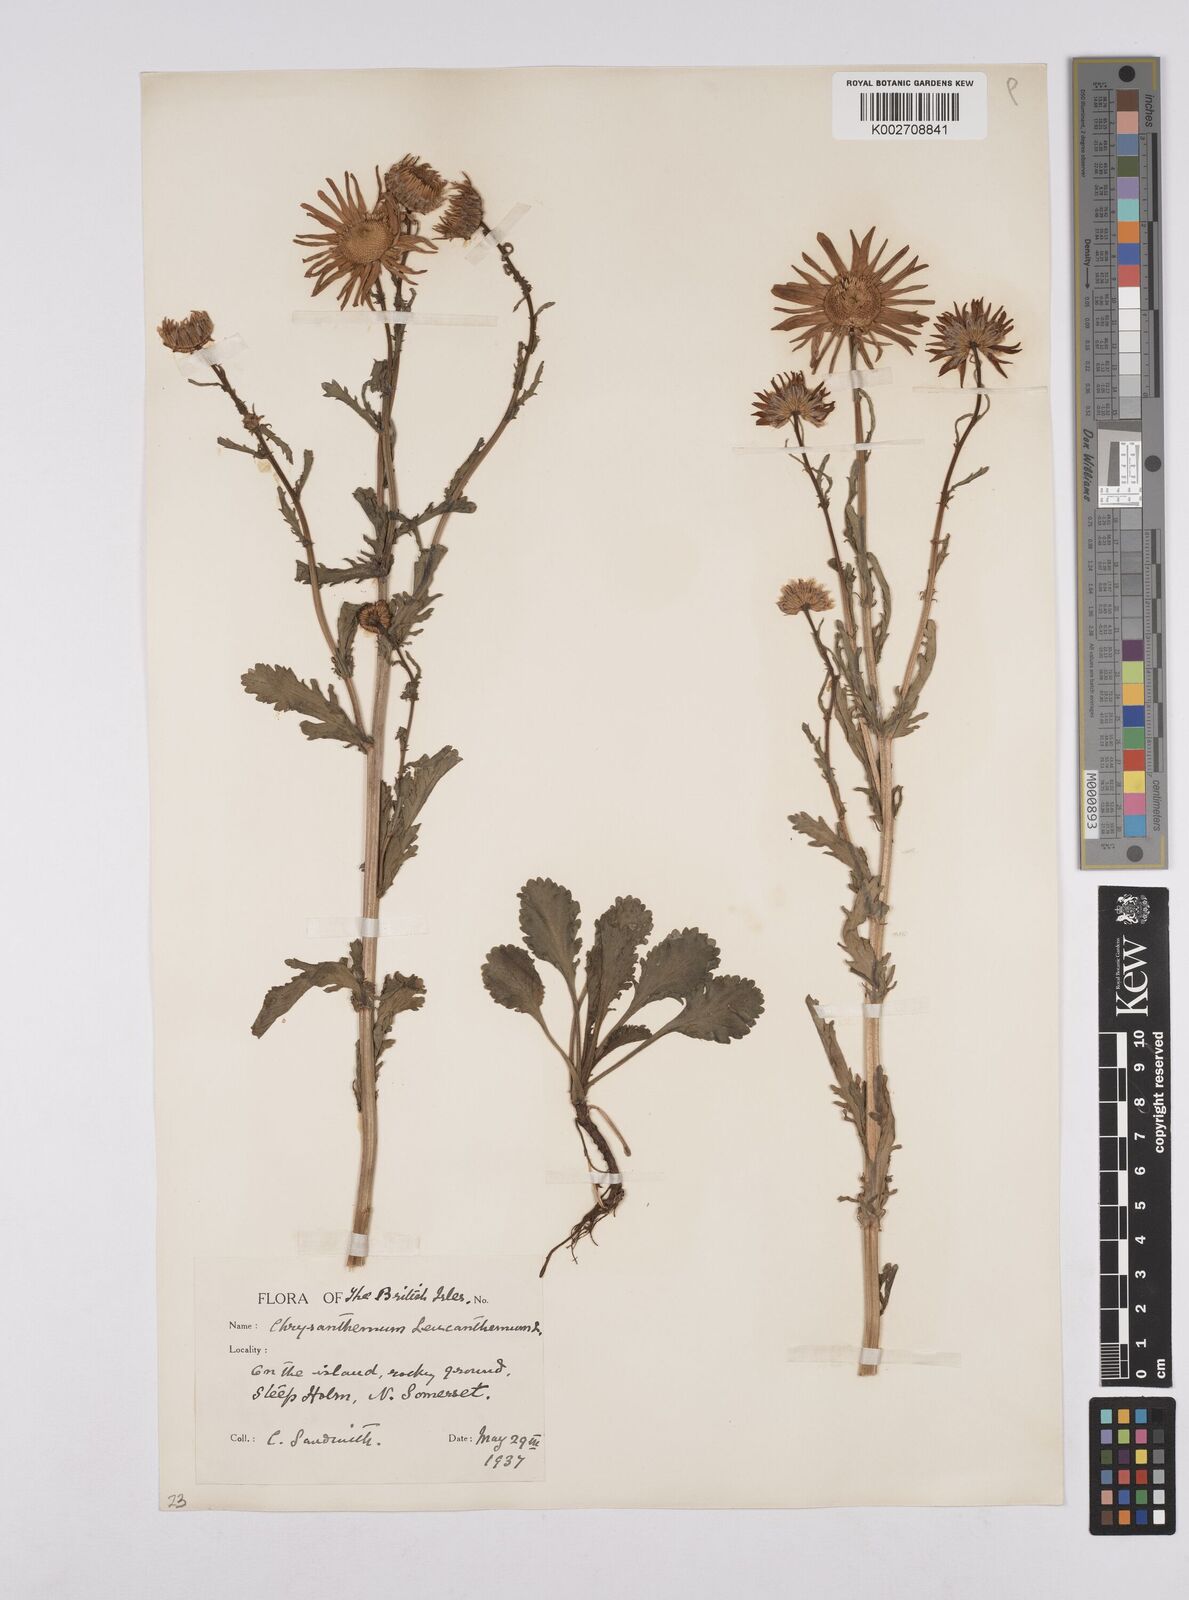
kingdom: Plantae
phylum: Tracheophyta
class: Magnoliopsida
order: Asterales
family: Asteraceae
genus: Leucanthemum
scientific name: Leucanthemum
